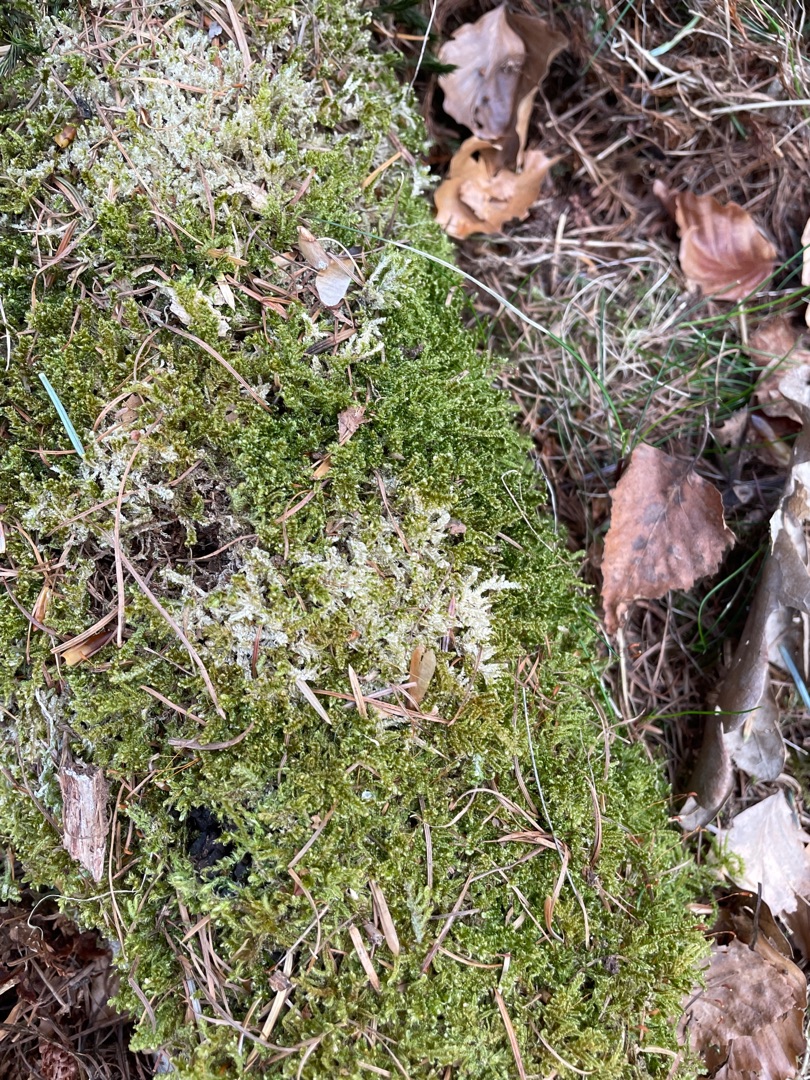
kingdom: Plantae
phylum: Bryophyta
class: Bryopsida
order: Hypnales
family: Hypnaceae
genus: Hypnum
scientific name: Hypnum cupressiforme
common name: Almindelig cypresmos
